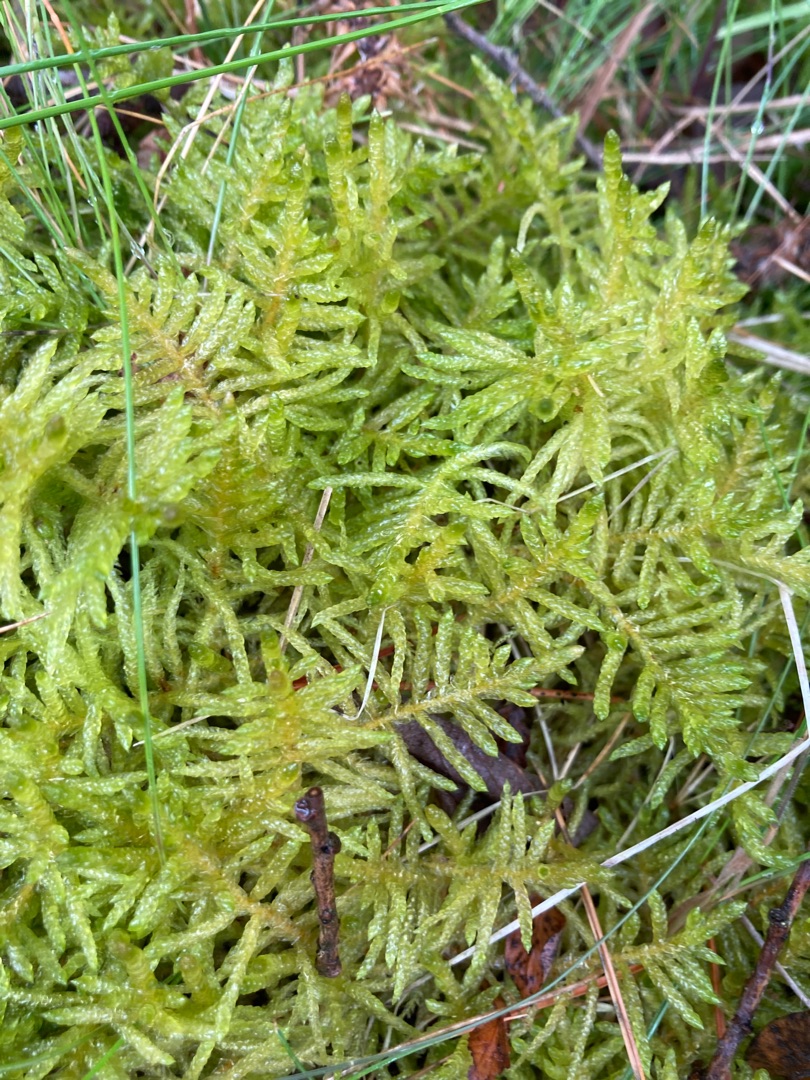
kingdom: Plantae
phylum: Bryophyta
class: Bryopsida
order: Hypnales
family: Brachytheciaceae
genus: Pseudoscleropodium
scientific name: Pseudoscleropodium purum
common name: Hulbladet fedtmos
